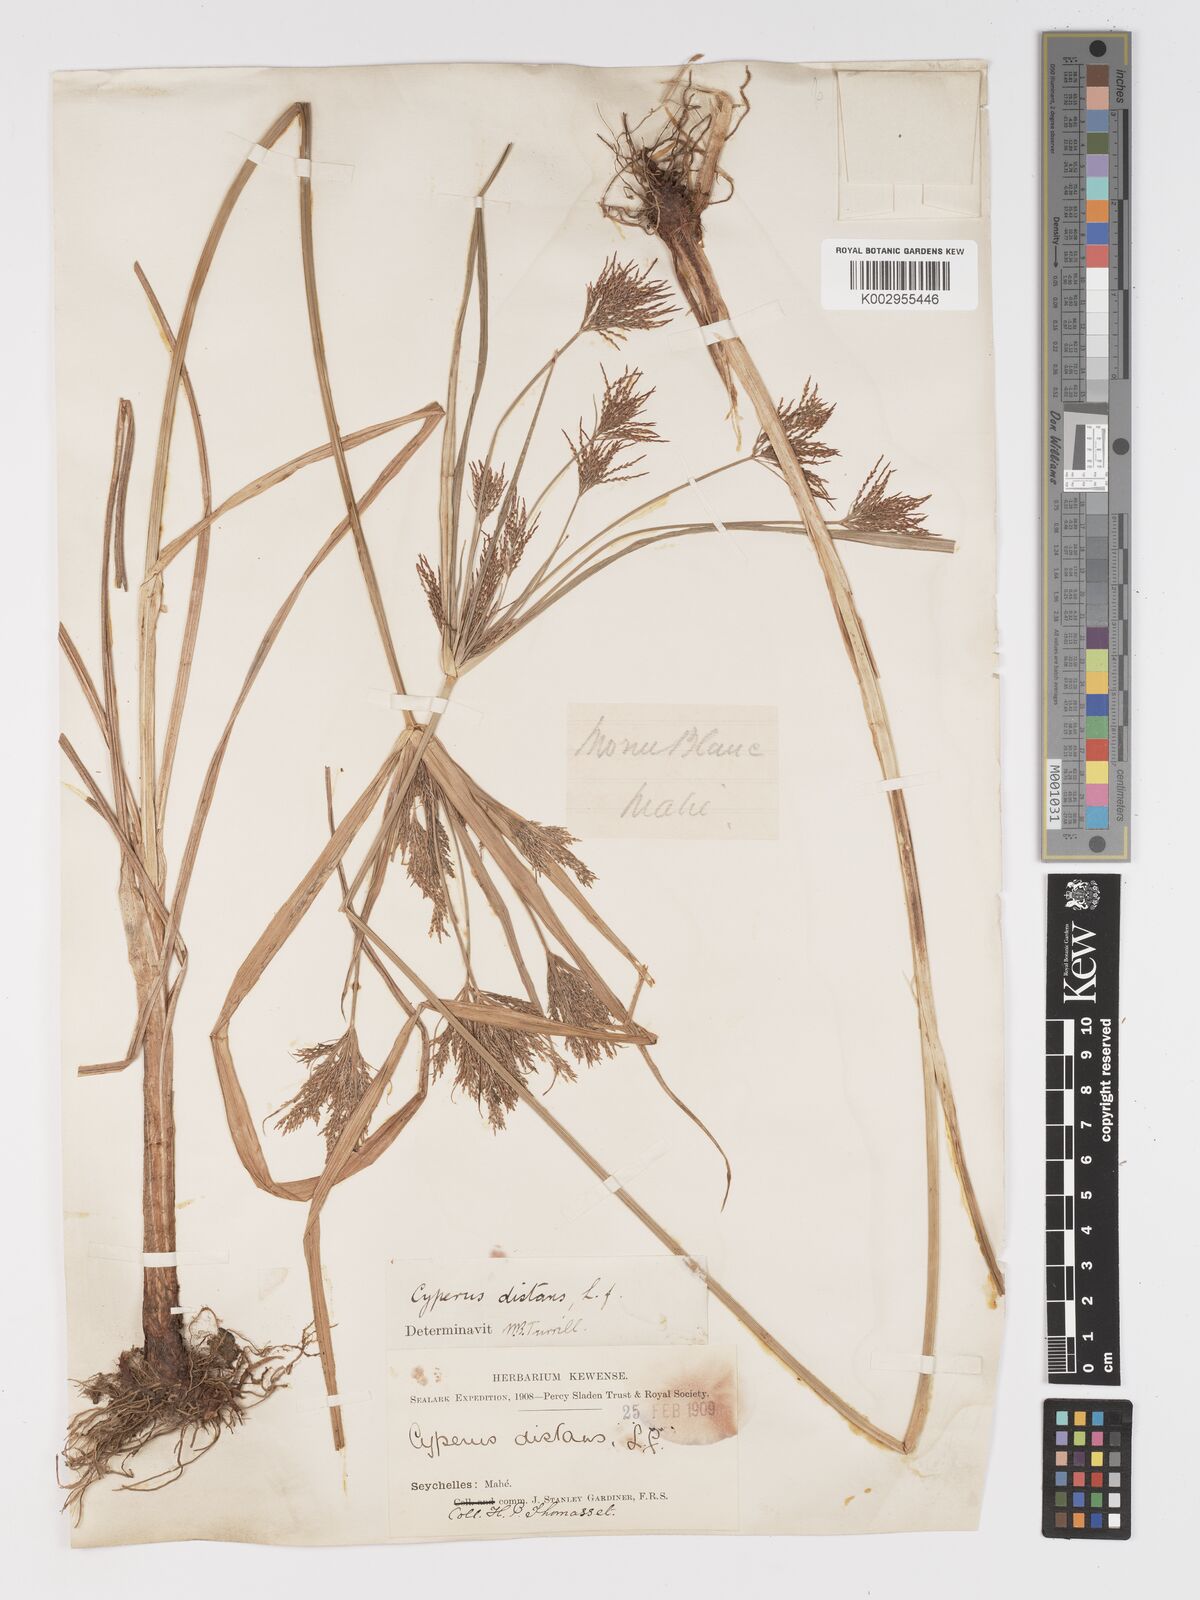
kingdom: Plantae
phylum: Tracheophyta
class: Liliopsida
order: Poales
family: Cyperaceae
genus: Cyperus
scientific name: Cyperus distans
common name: Slender cyperus
